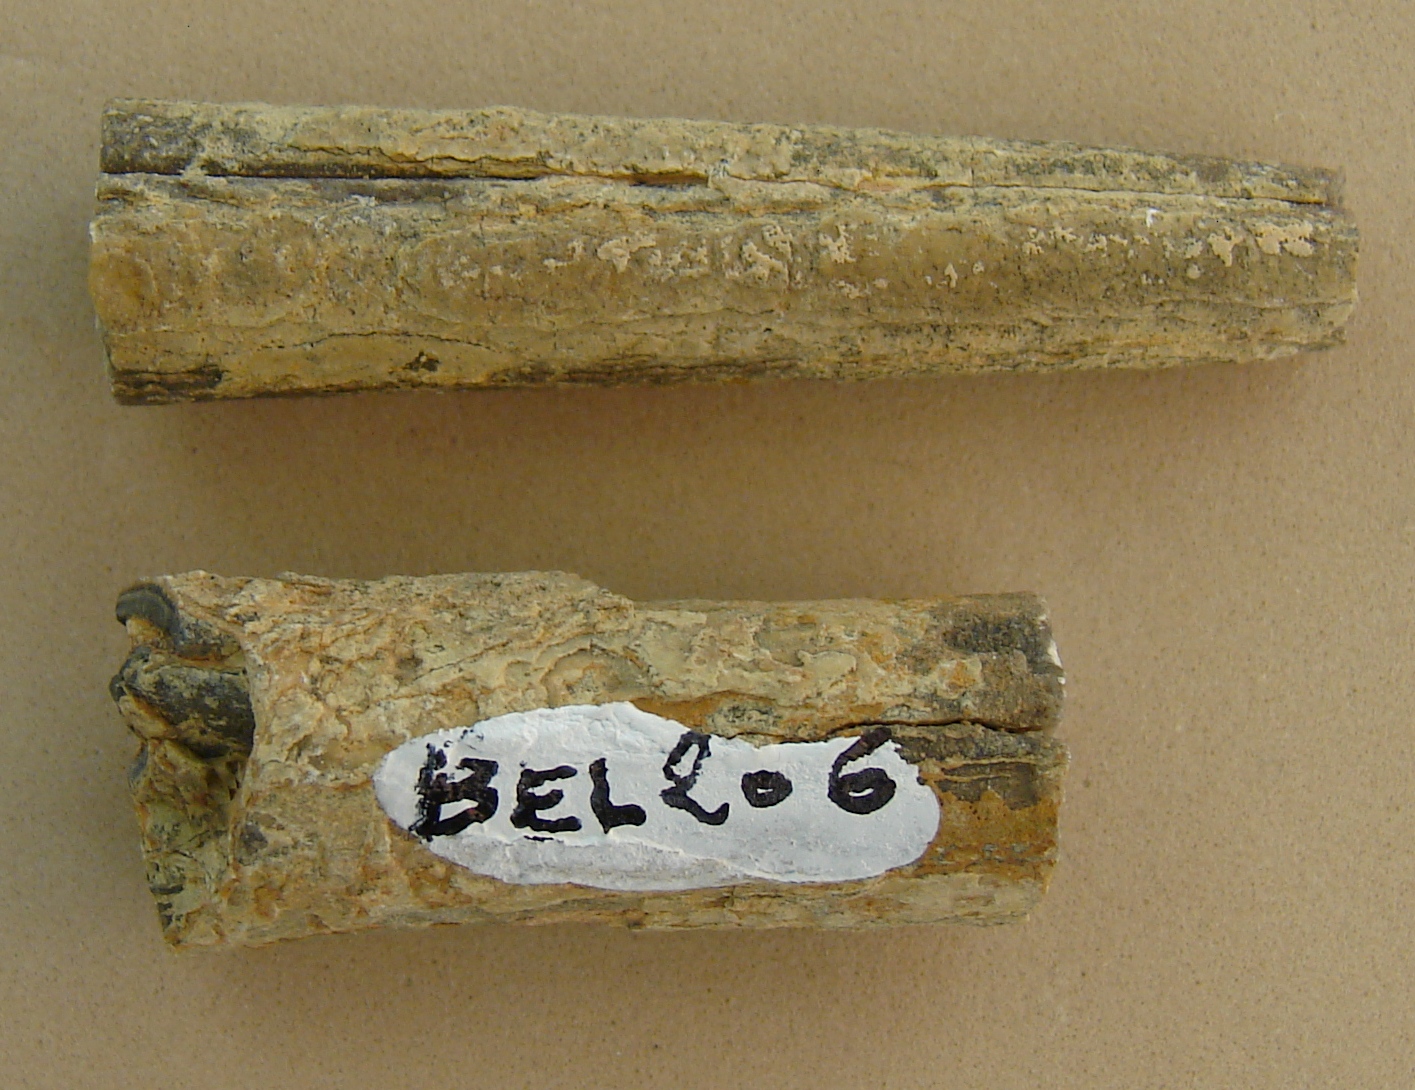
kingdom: Animalia
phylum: Mollusca
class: Cephalopoda
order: Belemnitida
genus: Holcobelus
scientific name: Holcobelus munieri
